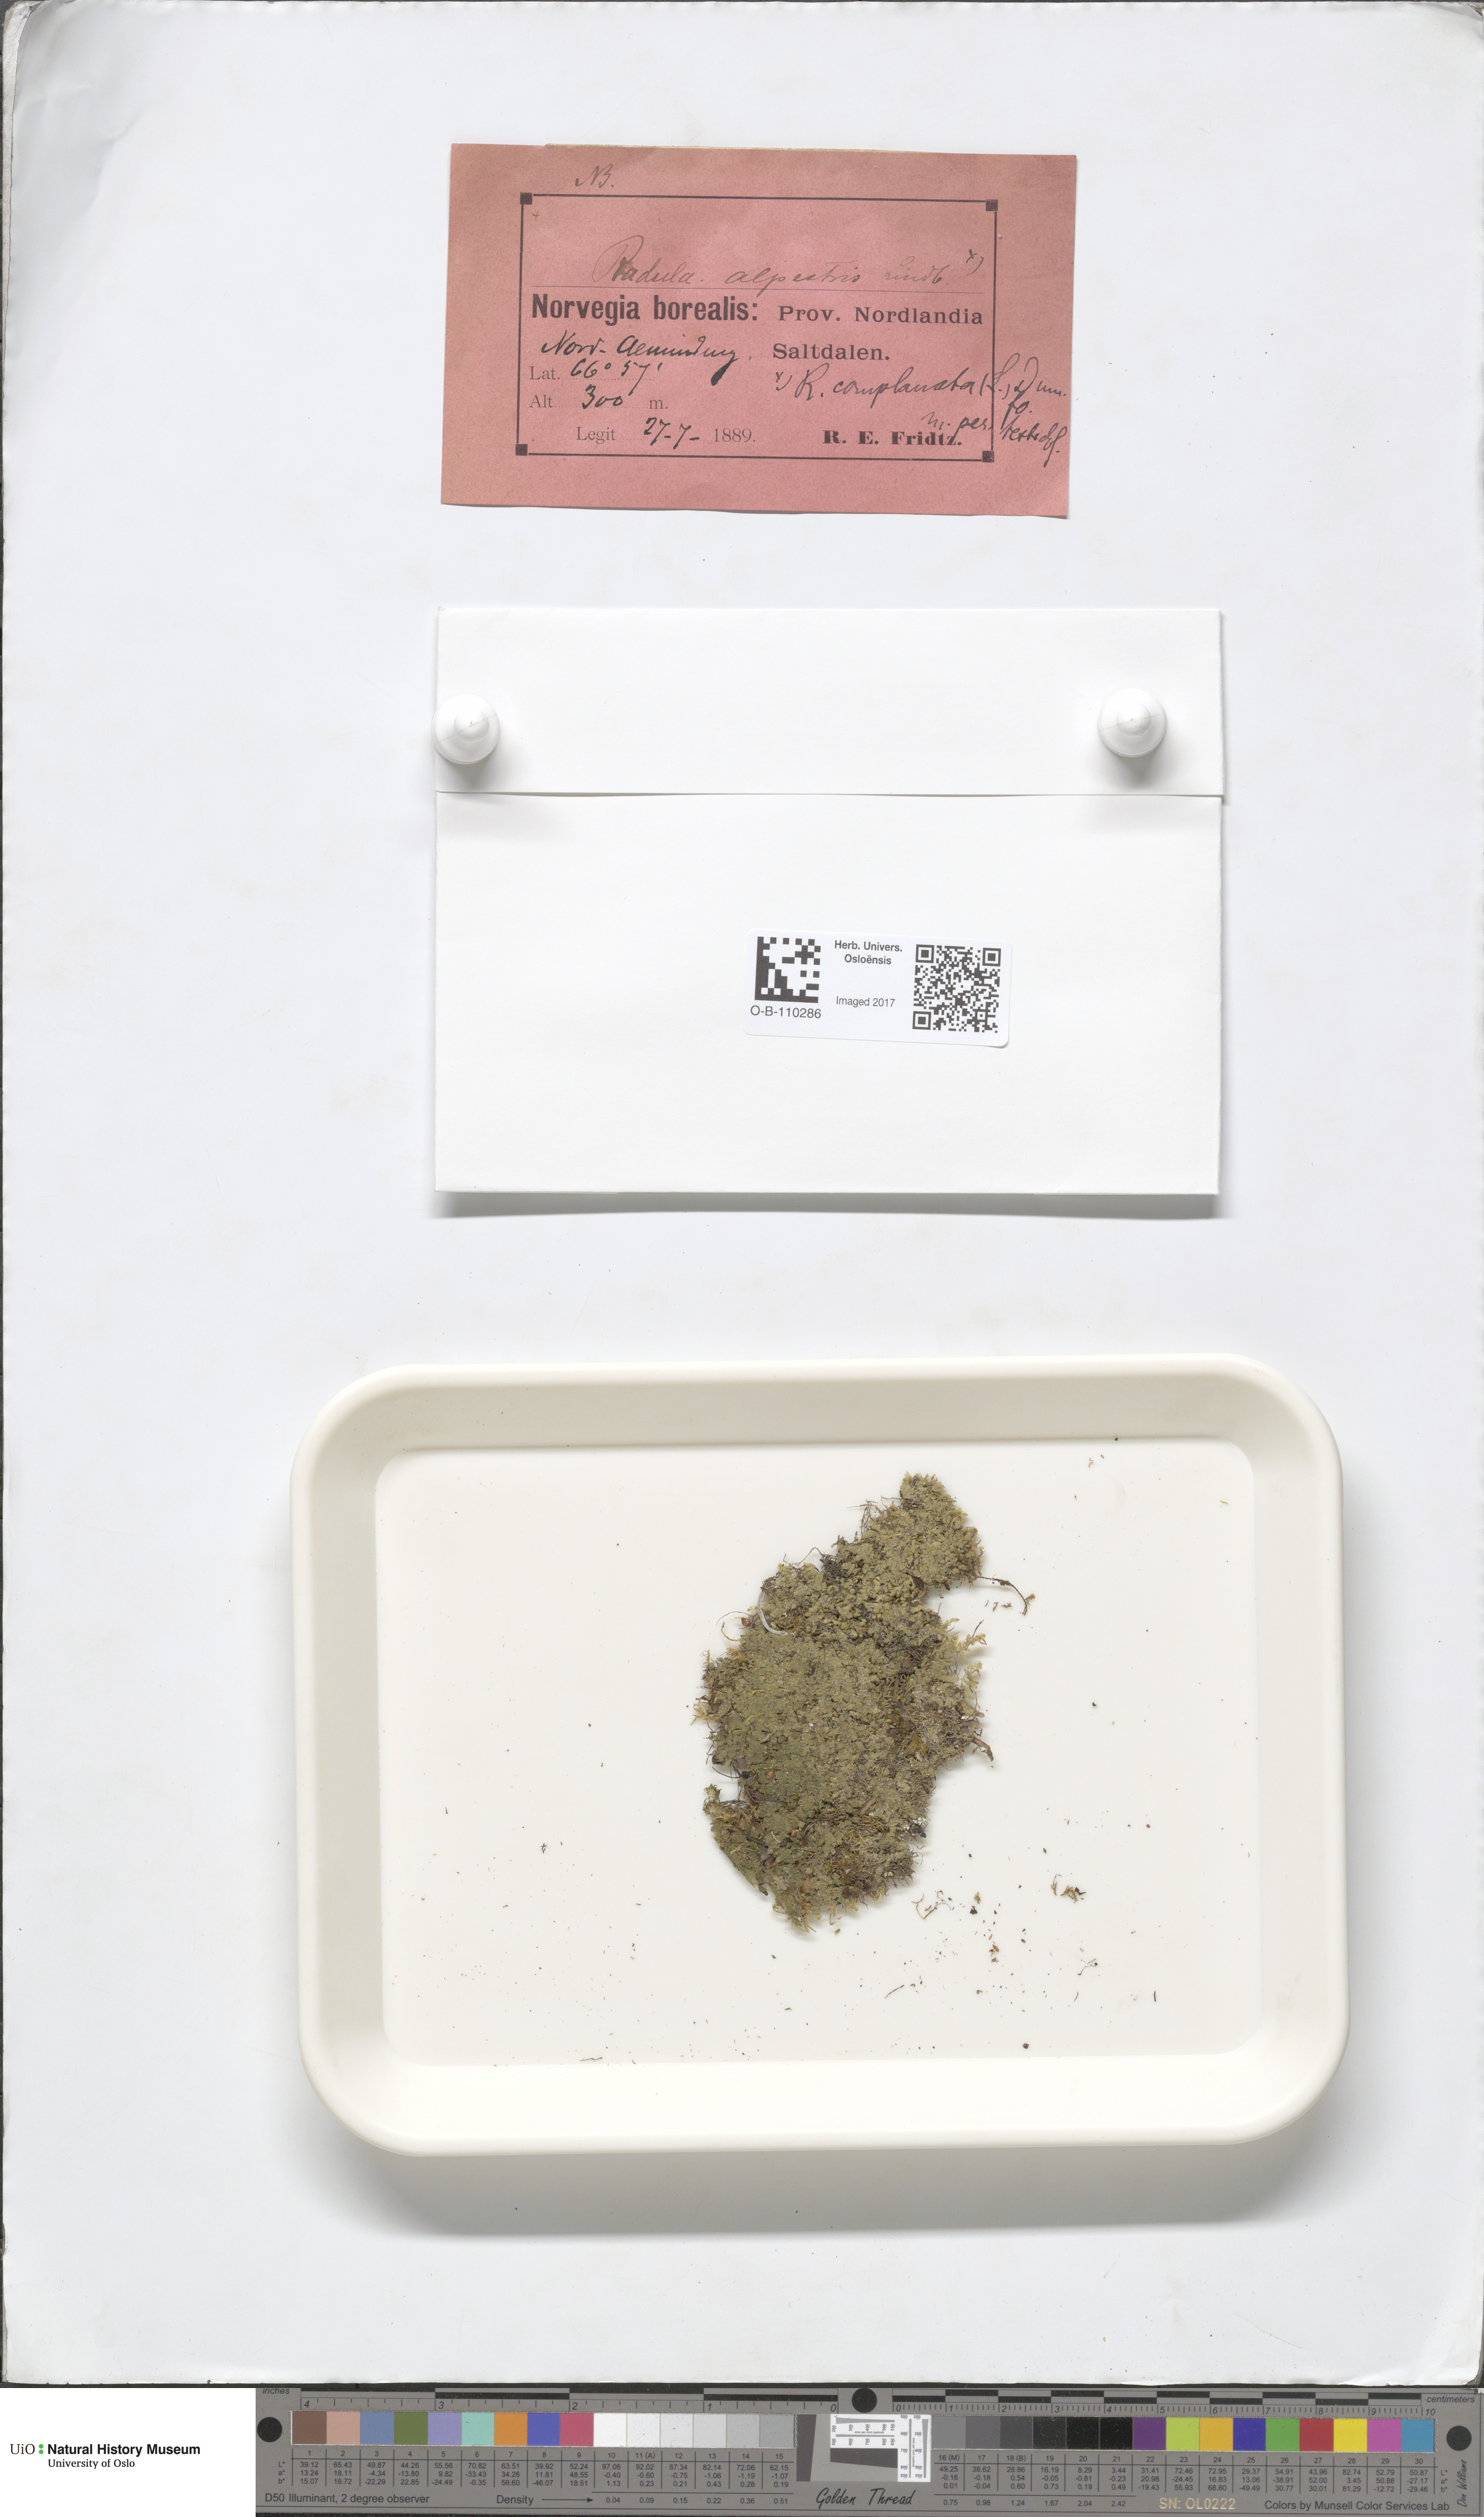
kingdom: Plantae
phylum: Marchantiophyta
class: Jungermanniopsida
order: Jungermanniales
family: Lophoziaceae
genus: Trilophozia
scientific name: Trilophozia quinquedentata
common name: Large notchwort
